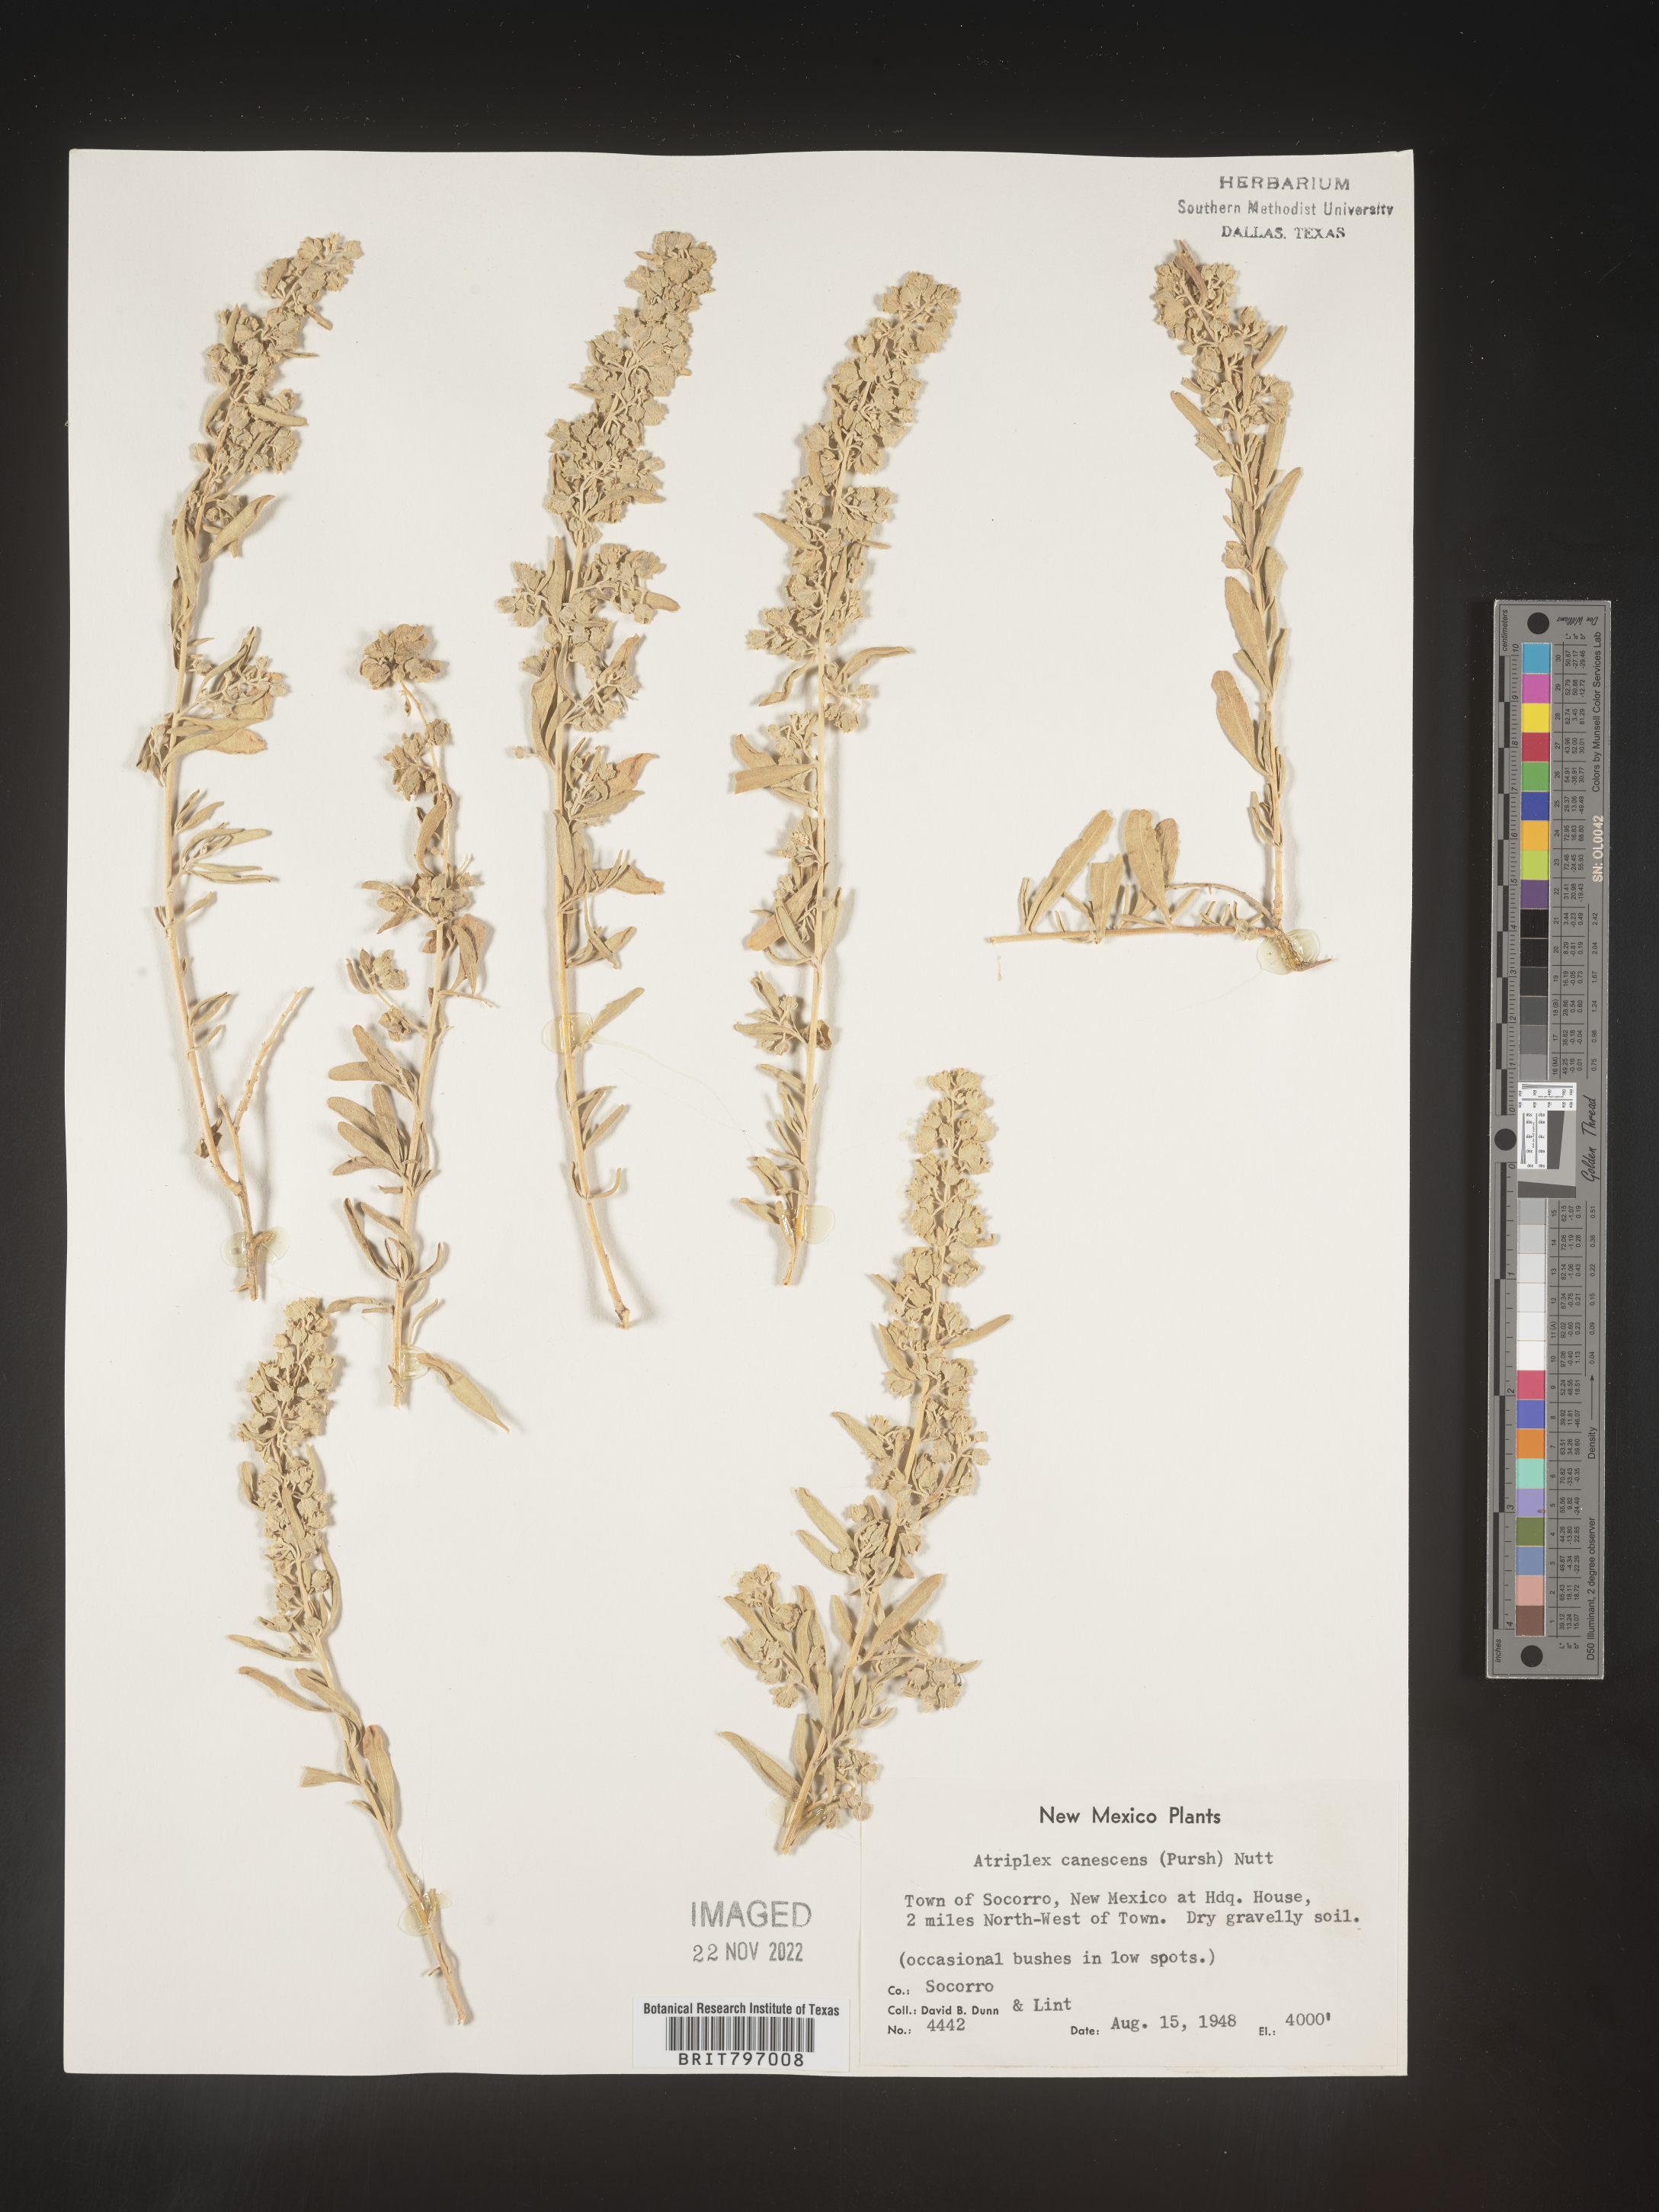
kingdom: Plantae
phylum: Tracheophyta
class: Magnoliopsida
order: Caryophyllales
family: Amaranthaceae
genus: Atriplex
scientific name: Atriplex canescens
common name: Four-wing saltbush
